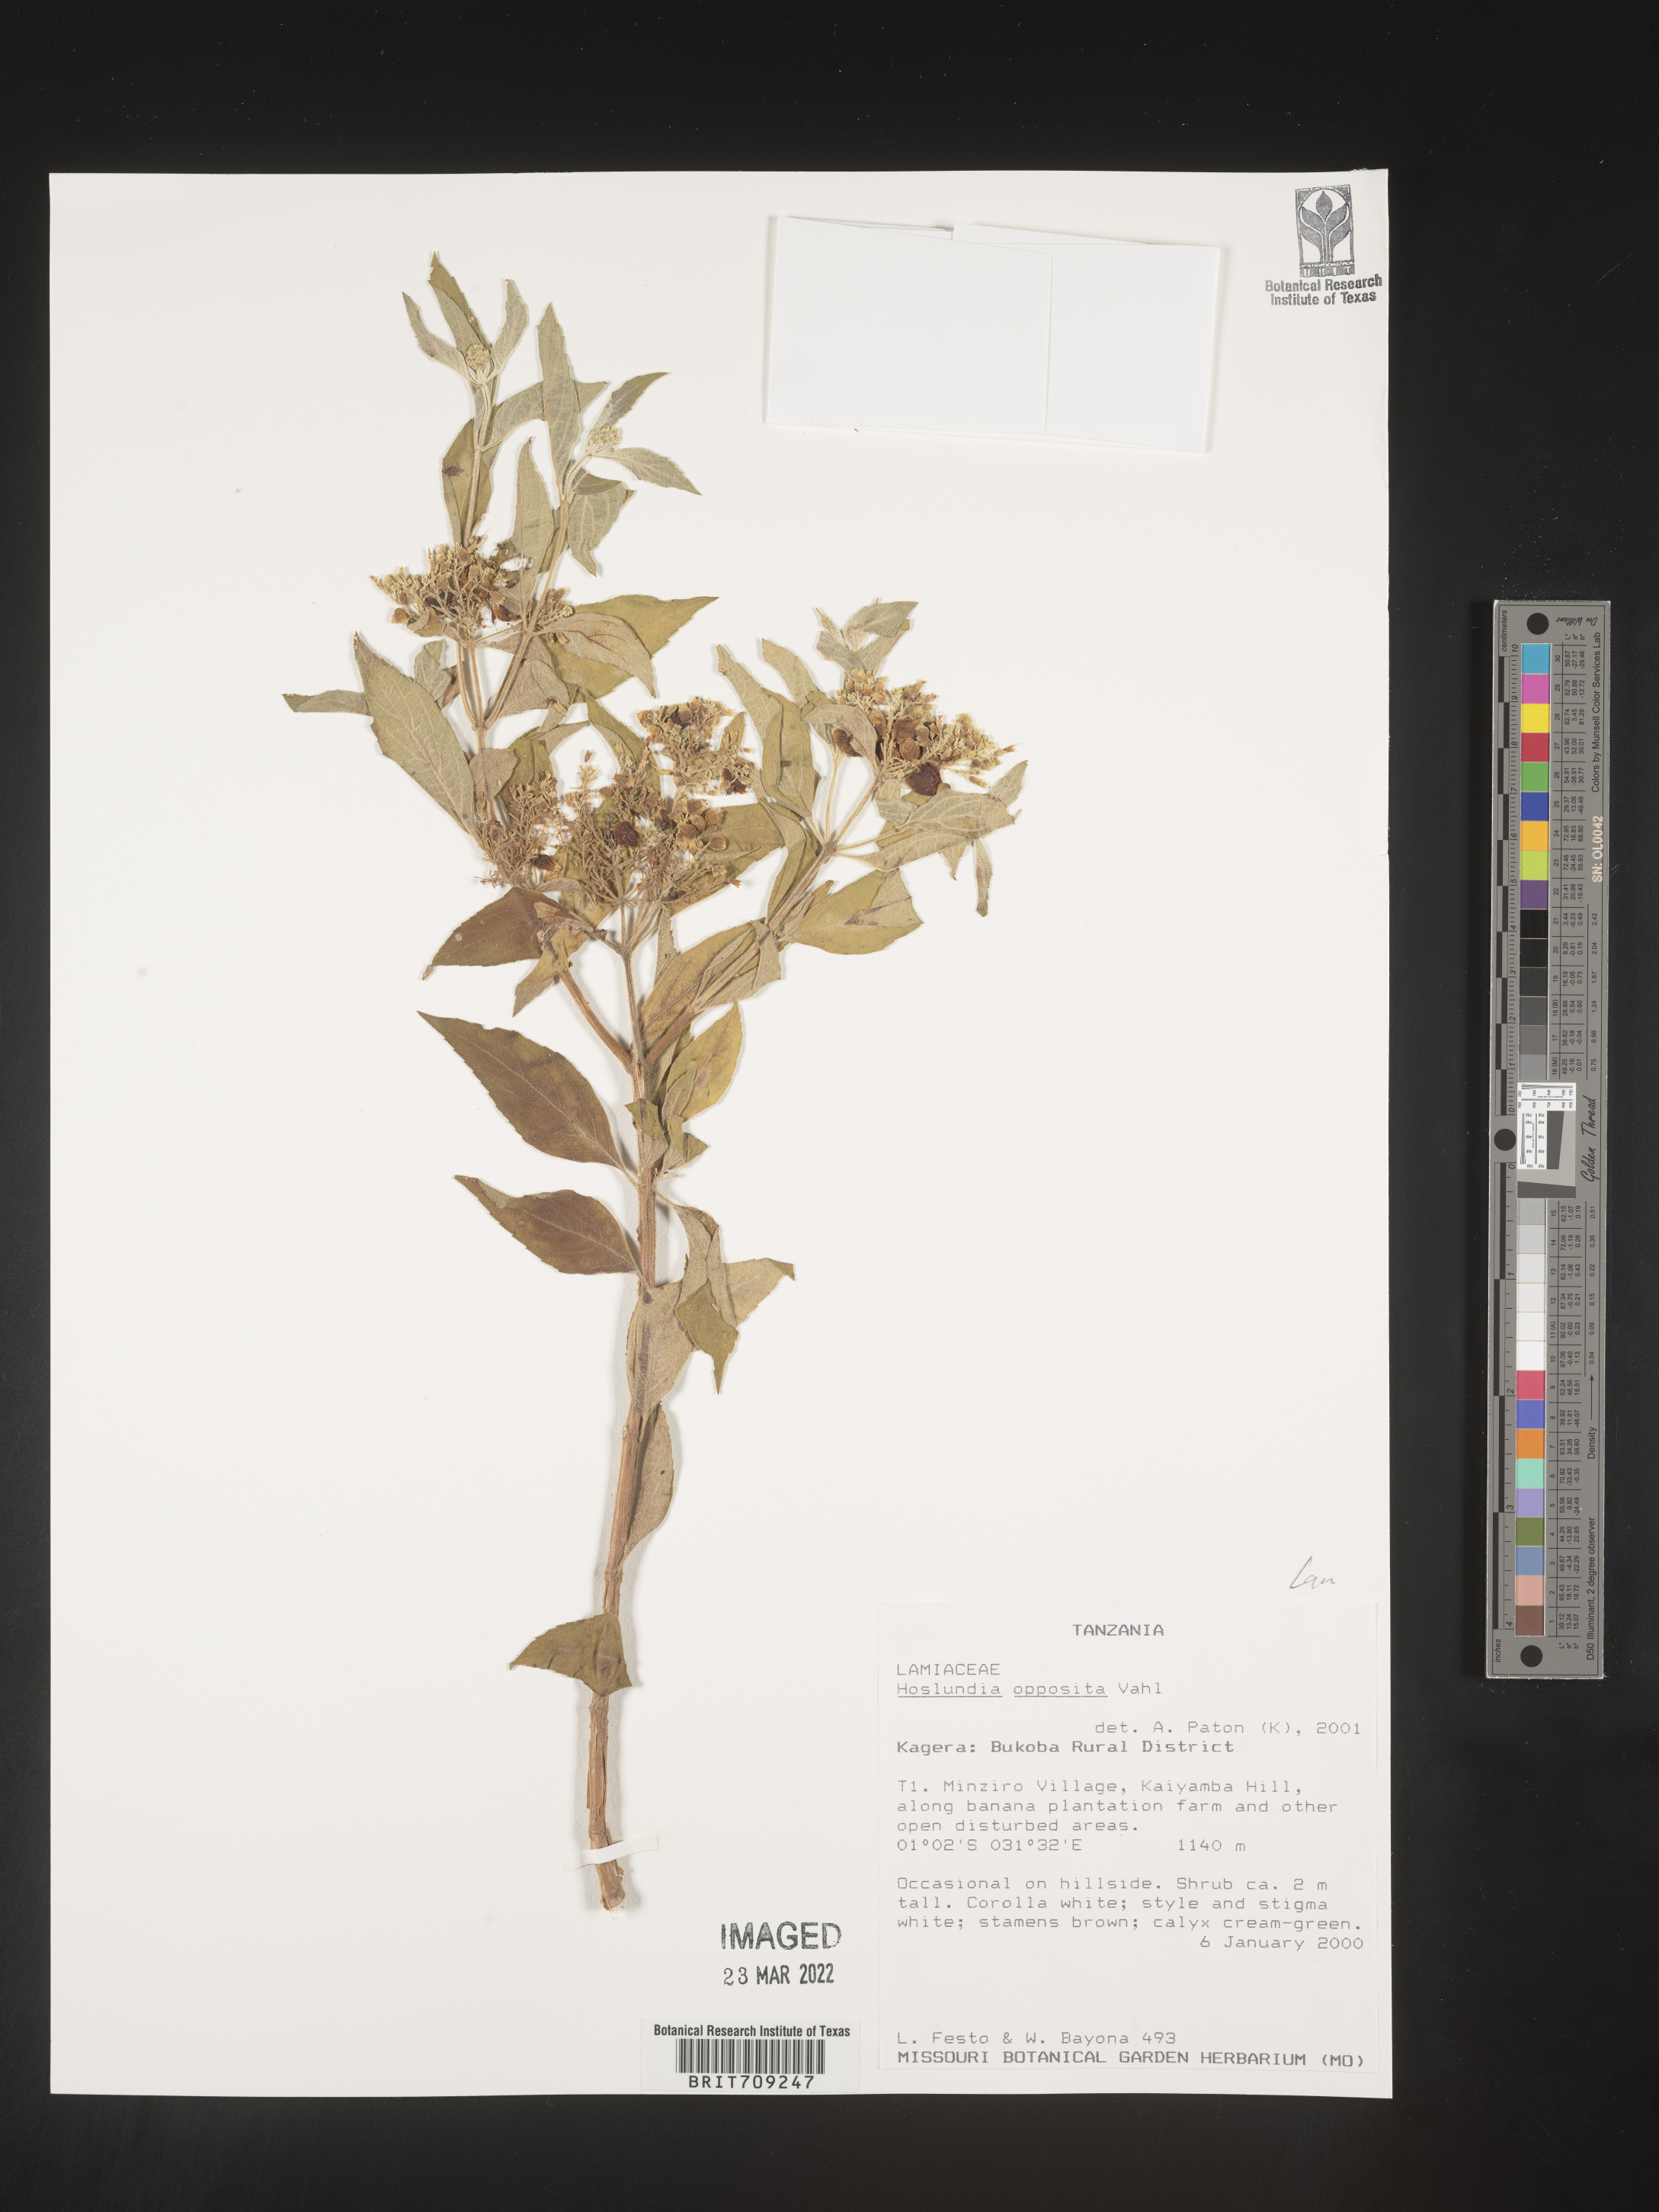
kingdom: Plantae
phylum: Tracheophyta
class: Magnoliopsida
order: Lamiales
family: Lamiaceae
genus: Hoslundia
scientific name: Hoslundia opposita
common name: Kamyuye
